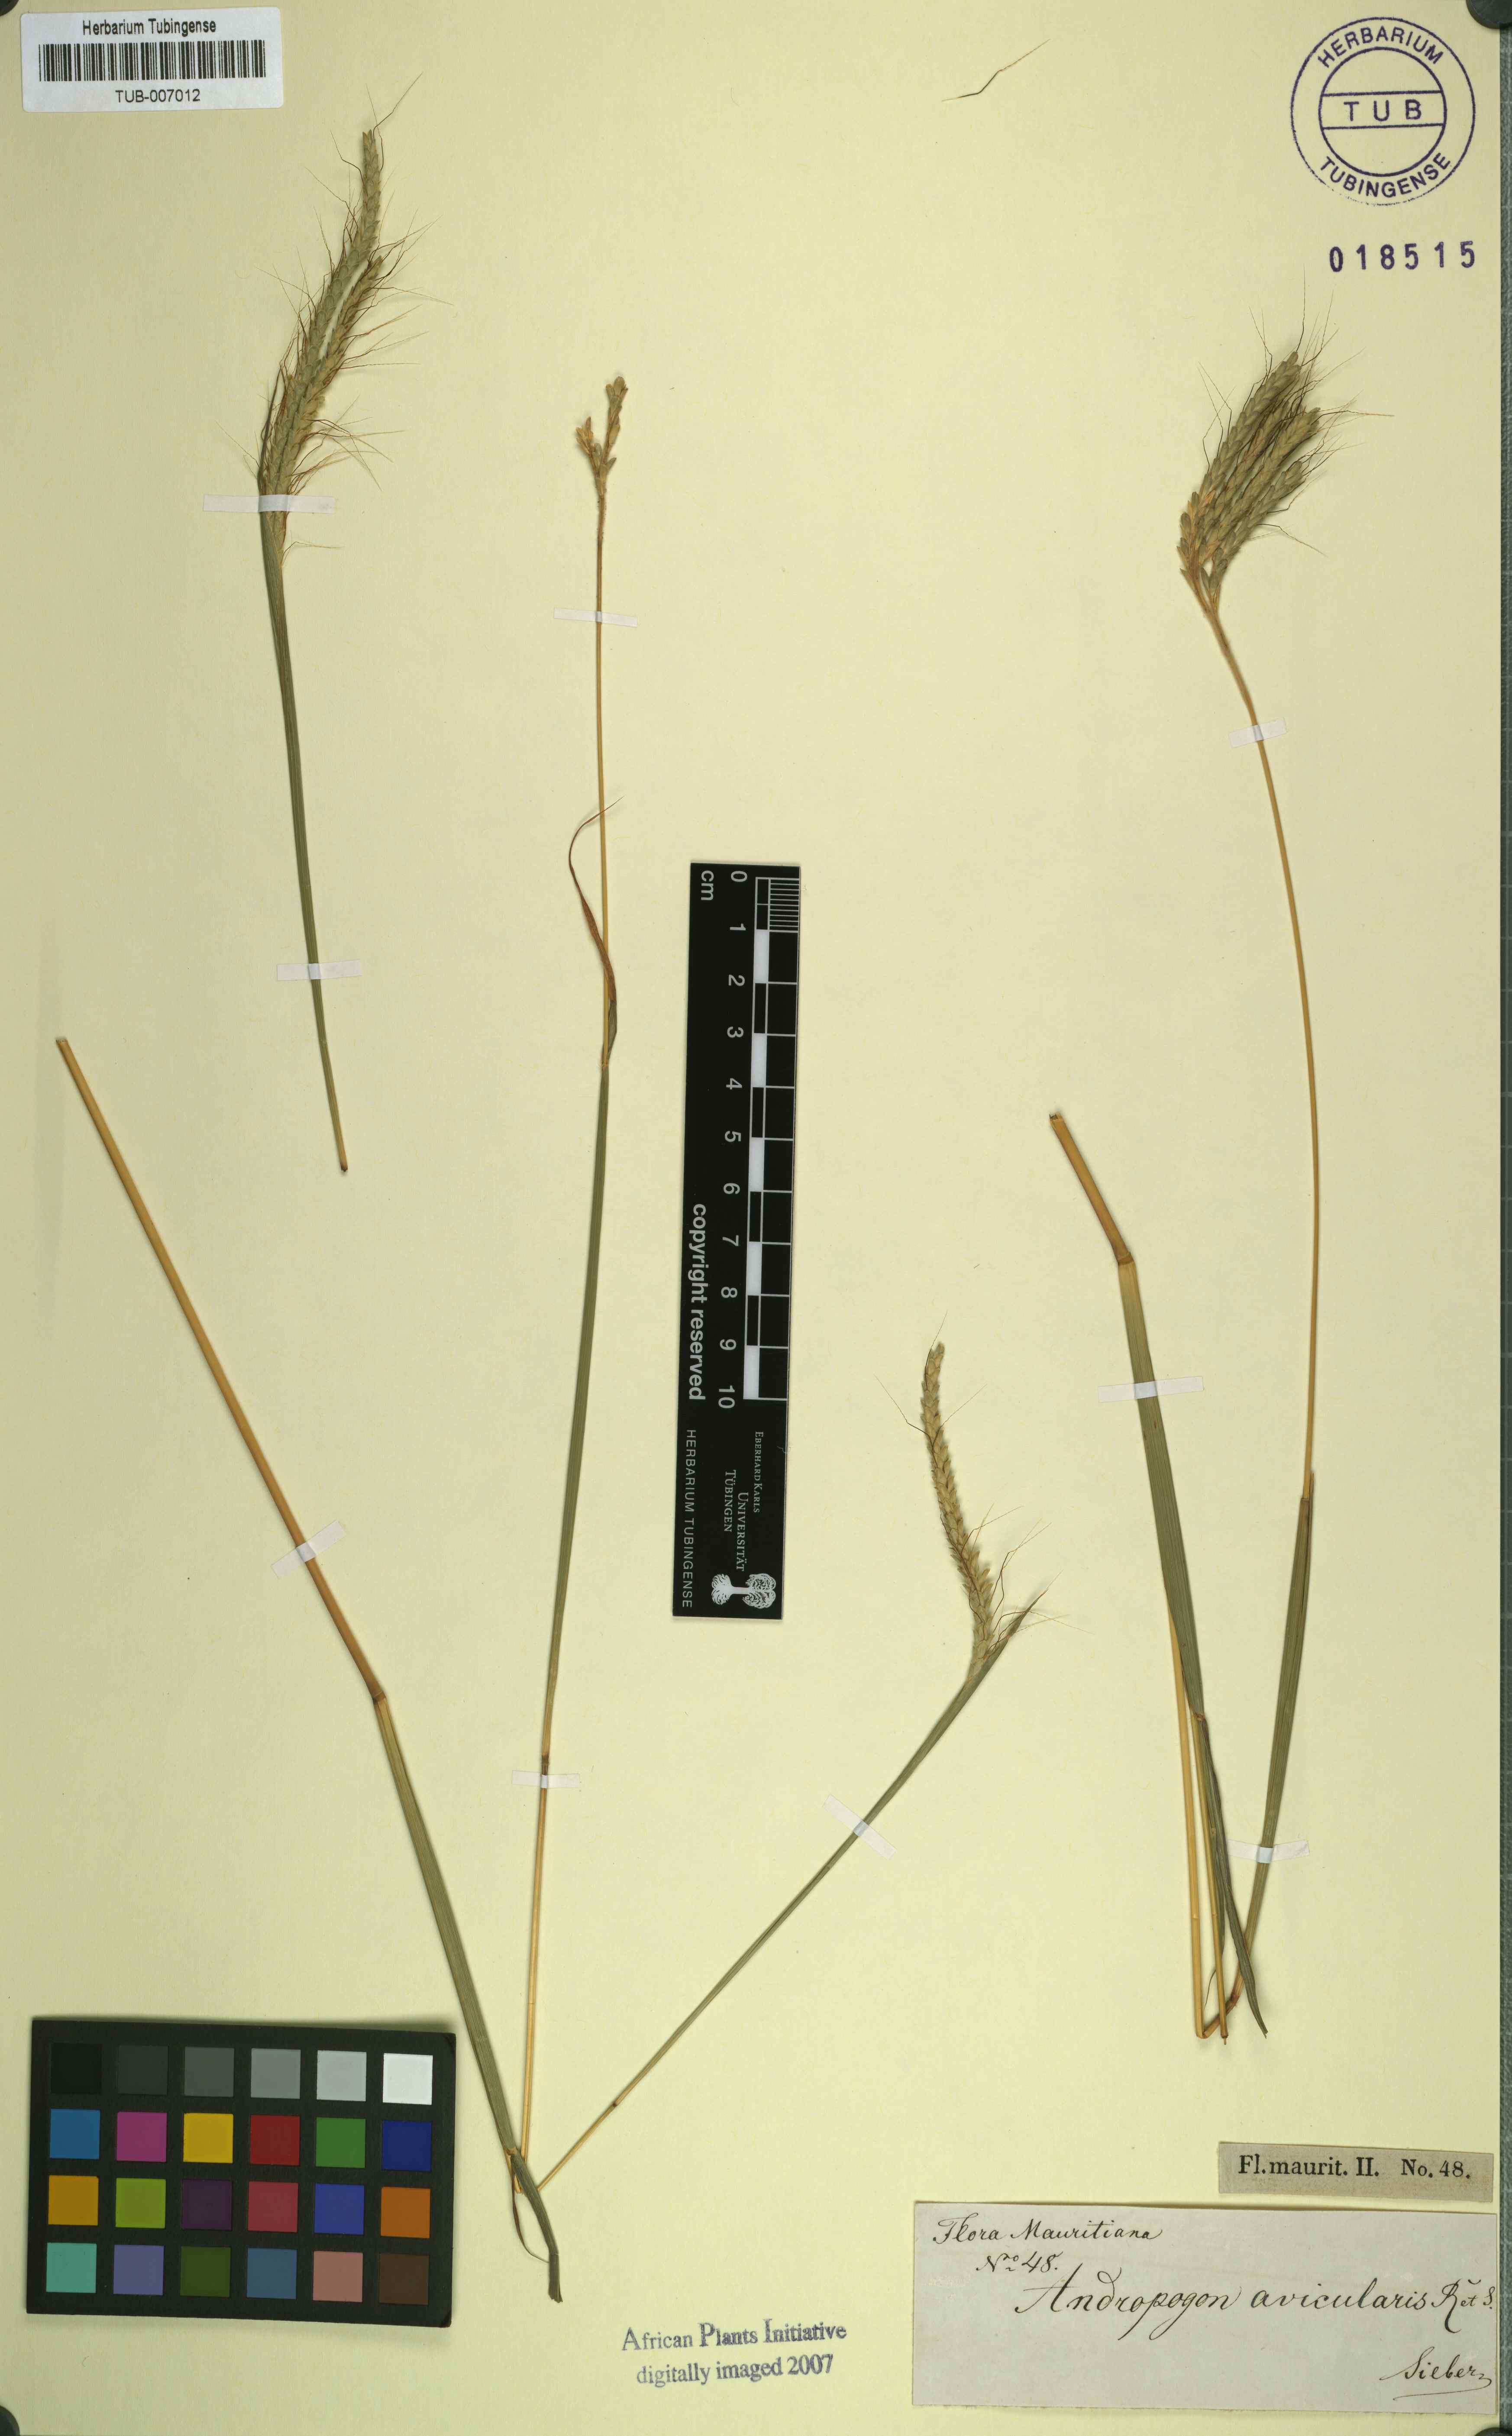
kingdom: Plantae
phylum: Tracheophyta
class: Liliopsida
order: Poales
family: Poaceae
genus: Chrysopogon
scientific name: Chrysopogon aciculatus
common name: Pilipiliula
